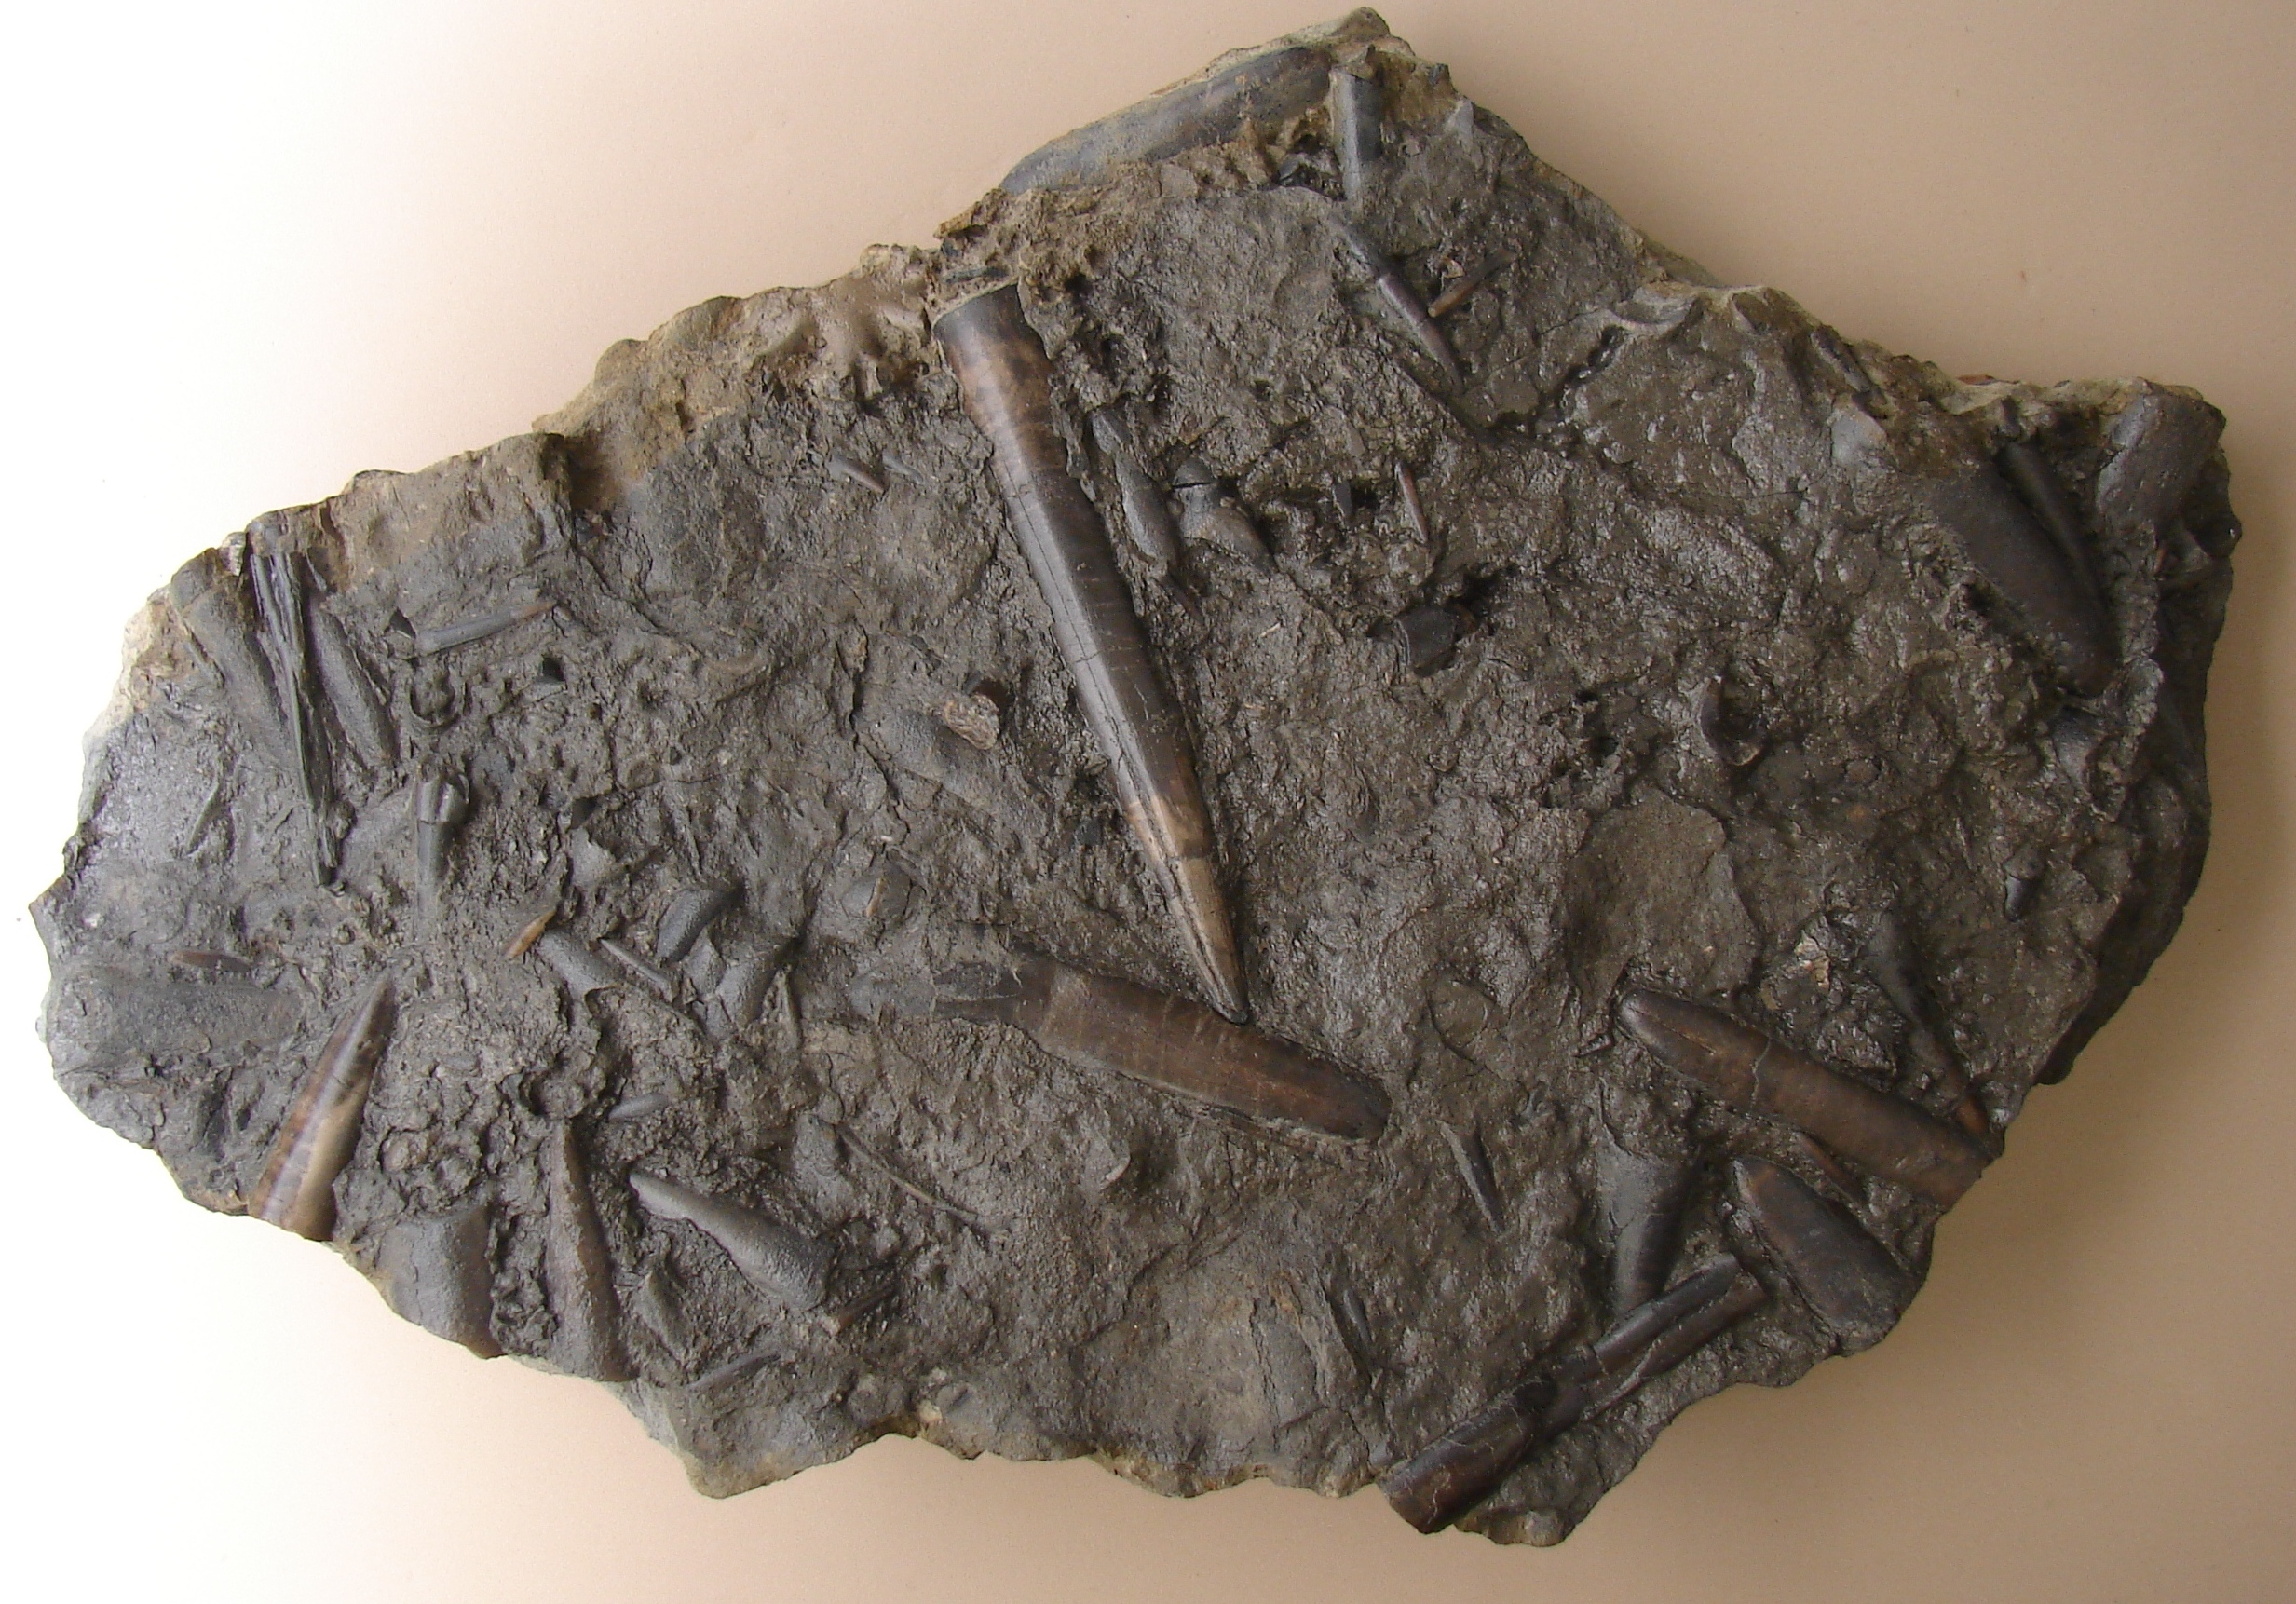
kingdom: Animalia
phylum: Mollusca
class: Cephalopoda
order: Belemnitida
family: Megateuthididae
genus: Dactyloteuthis
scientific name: Dactyloteuthis
